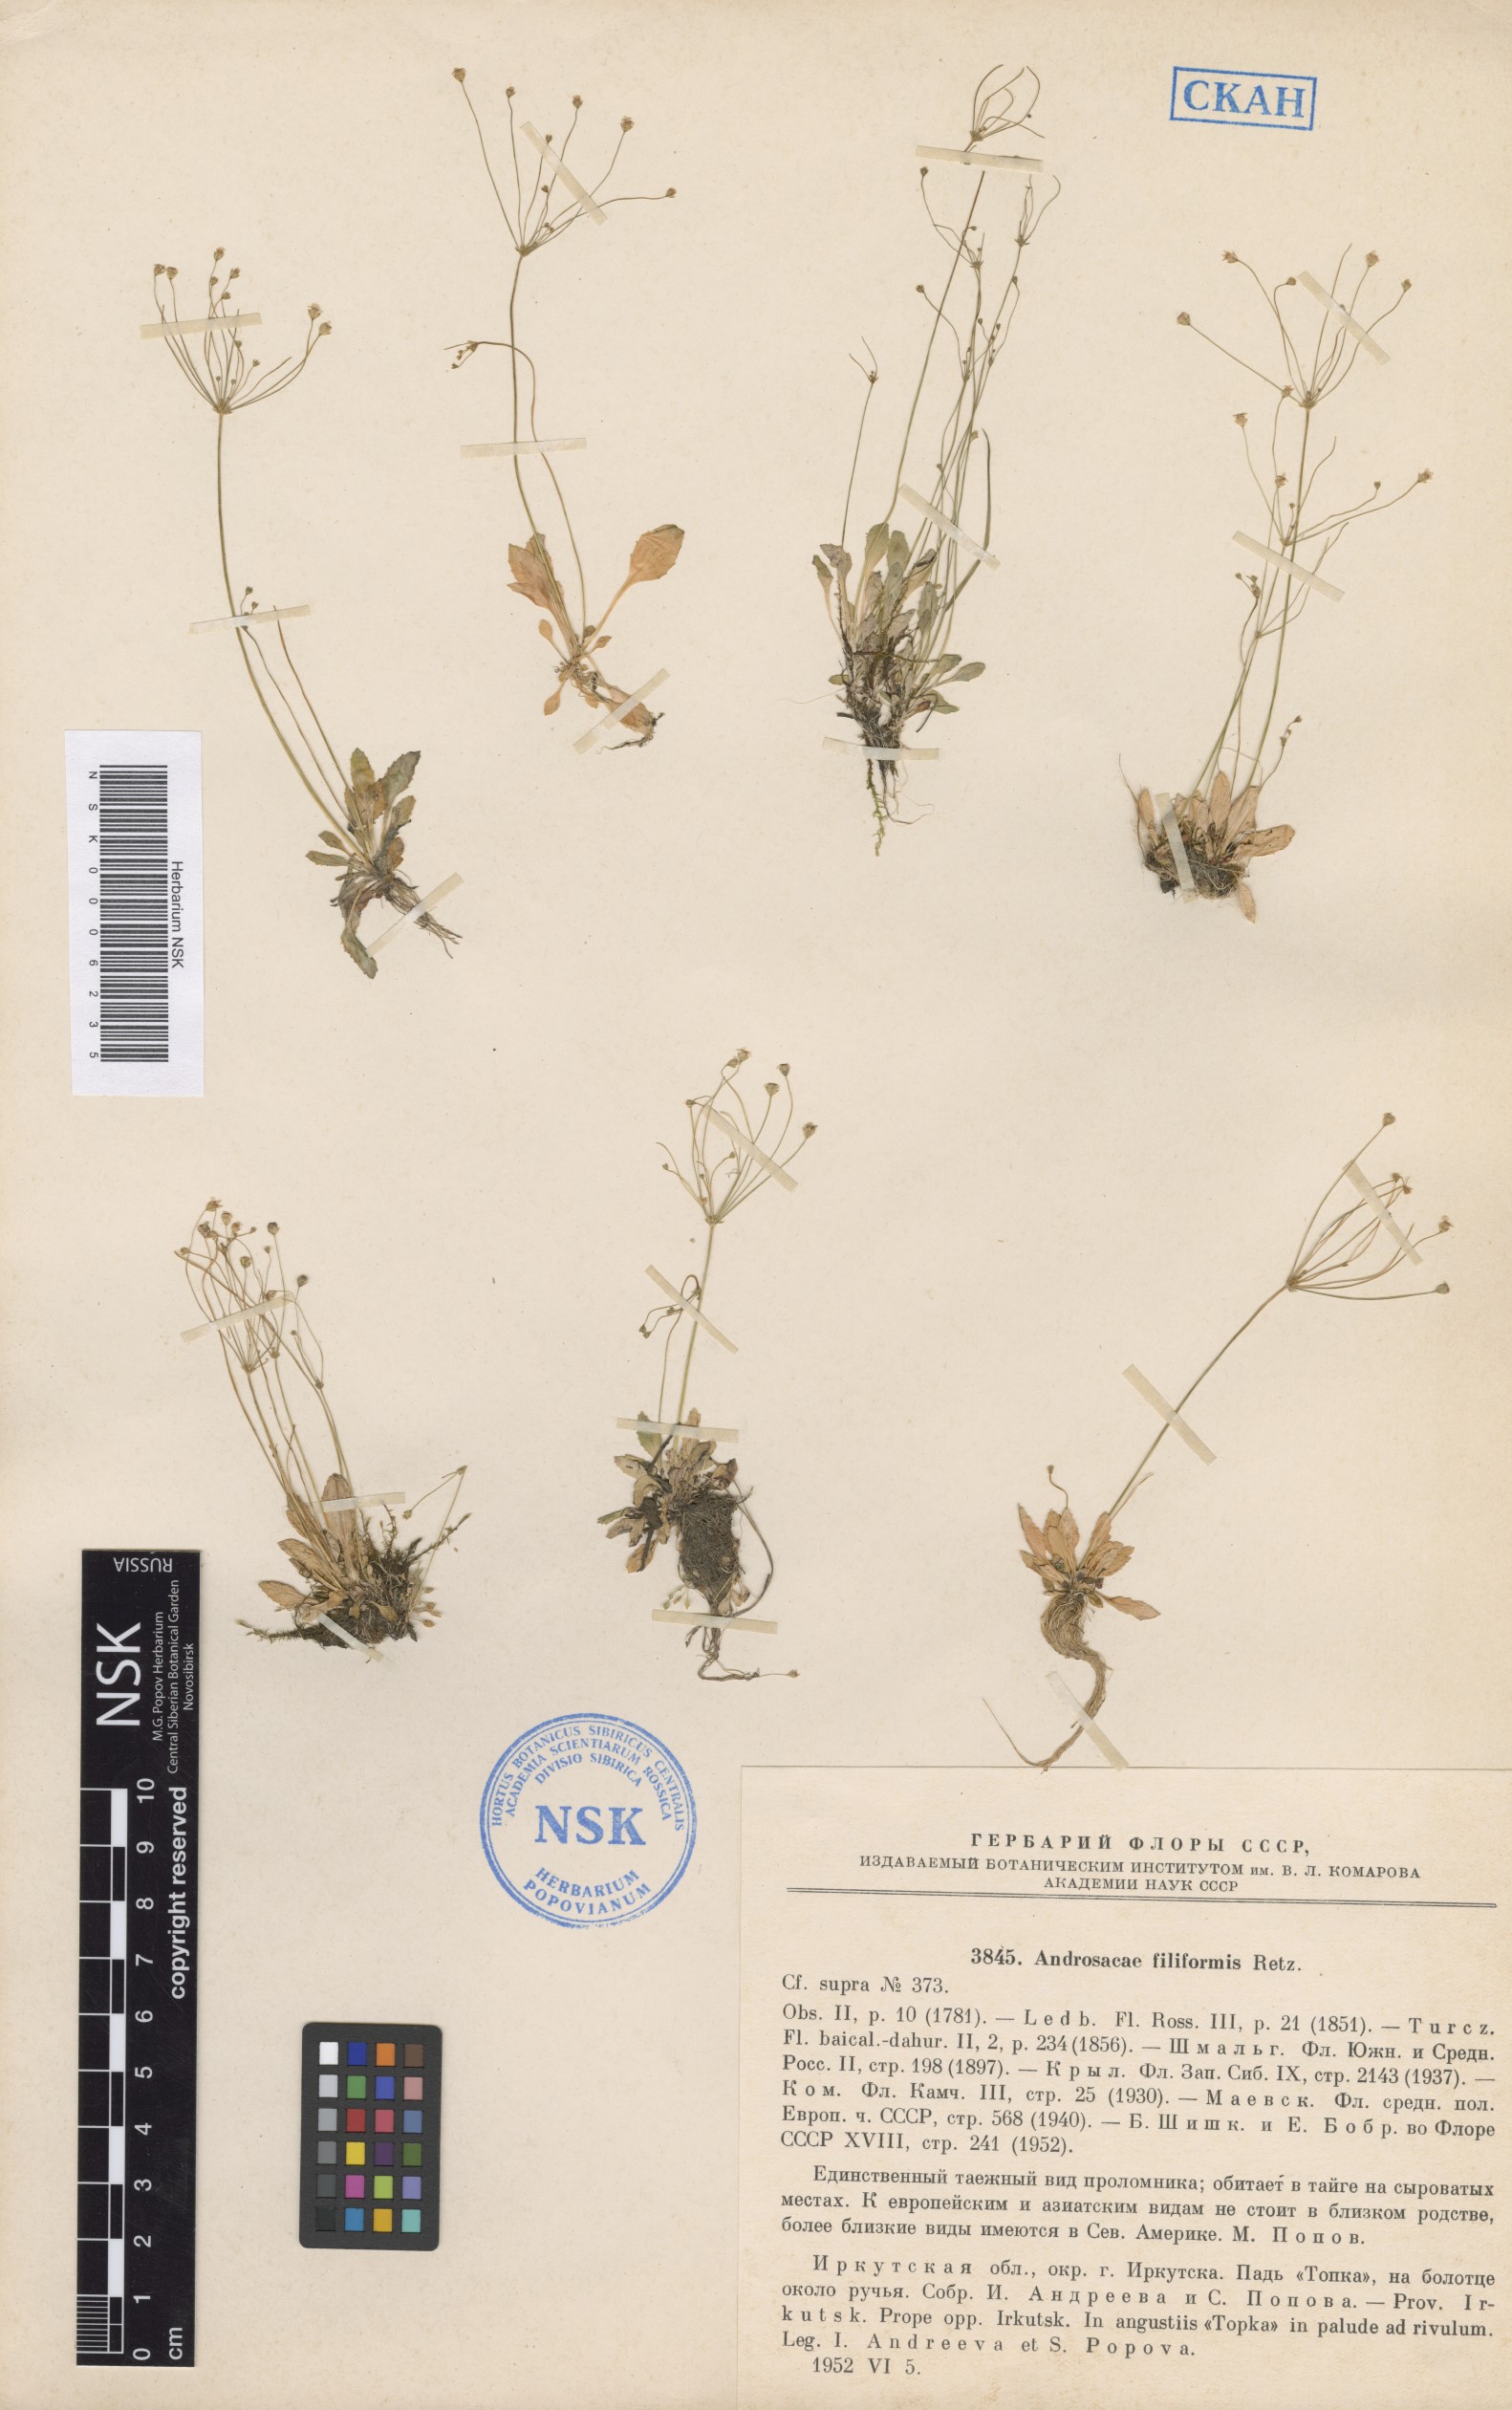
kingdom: Plantae
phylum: Tracheophyta
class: Magnoliopsida
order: Ericales
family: Primulaceae
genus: Androsace
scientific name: Androsace filiformis
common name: Filiform rock jasmine
